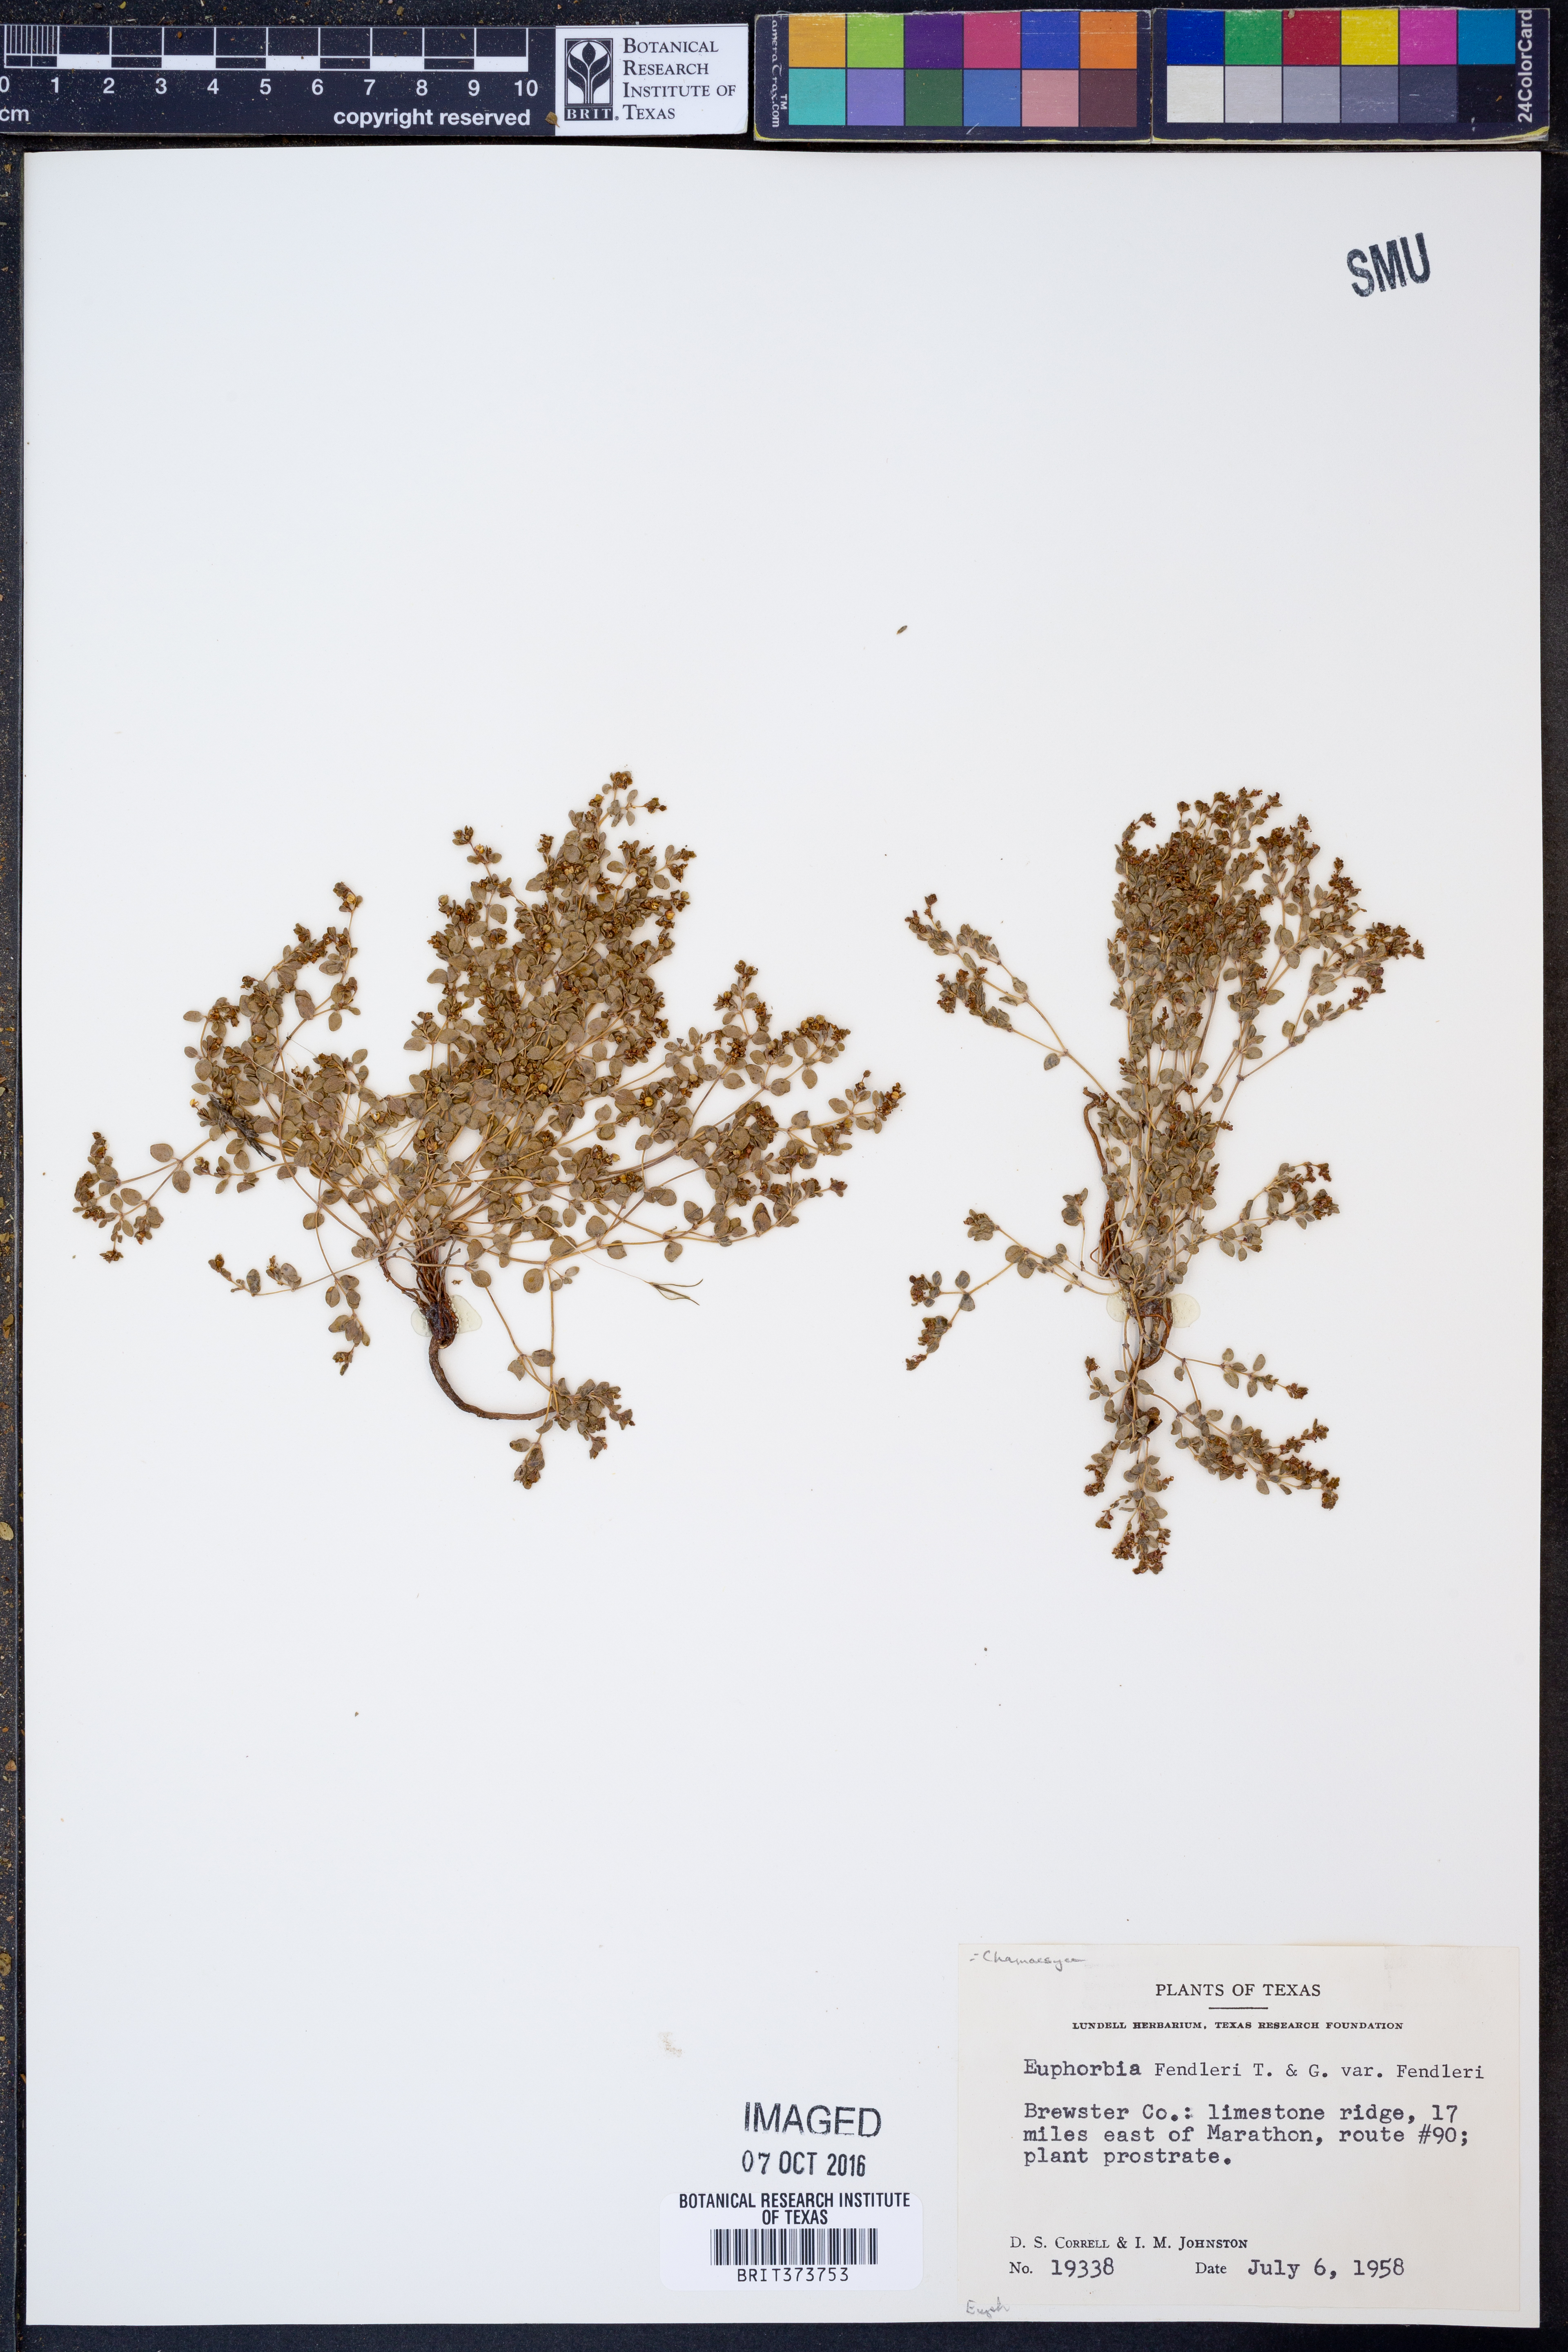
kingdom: Plantae
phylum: Tracheophyta
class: Magnoliopsida
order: Malpighiales
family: Euphorbiaceae
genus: Euphorbia
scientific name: Euphorbia fendleri
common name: Fendler's euphorbia
